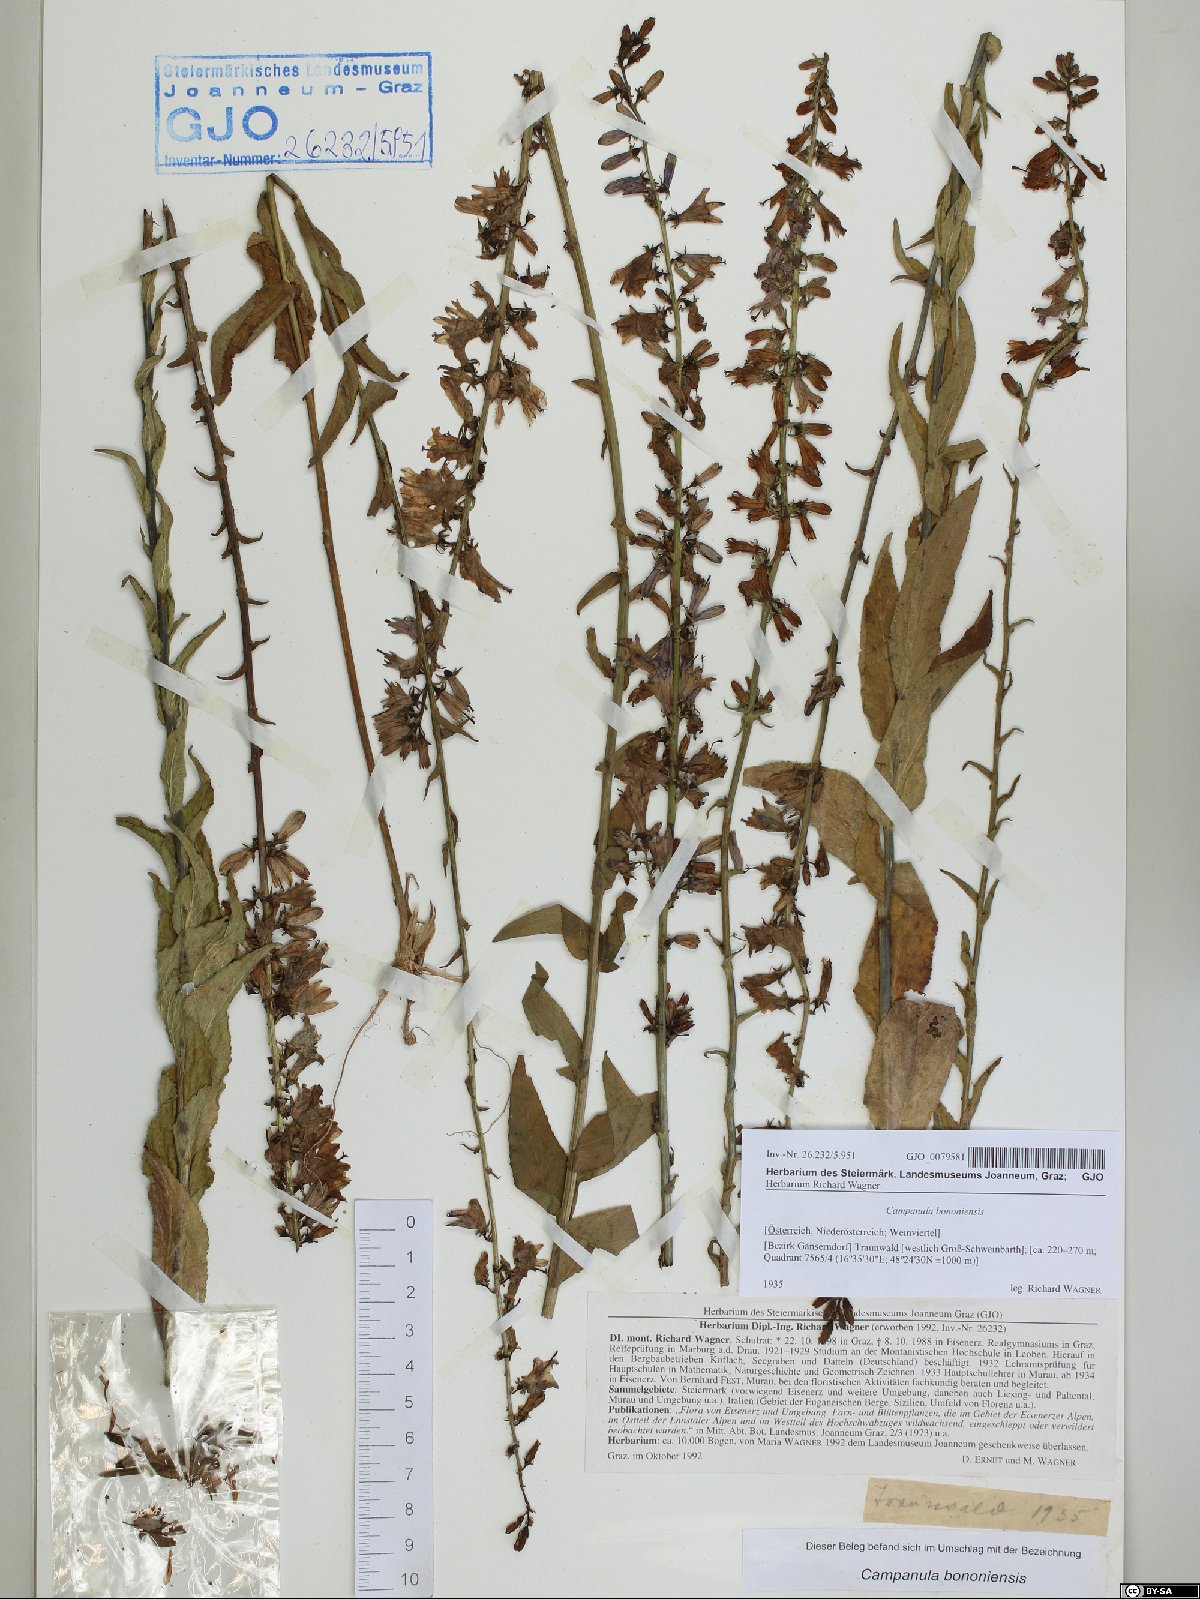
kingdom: Plantae
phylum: Tracheophyta
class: Magnoliopsida
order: Asterales
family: Campanulaceae
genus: Campanula
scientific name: Campanula bononiensis
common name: Pale bellflower
